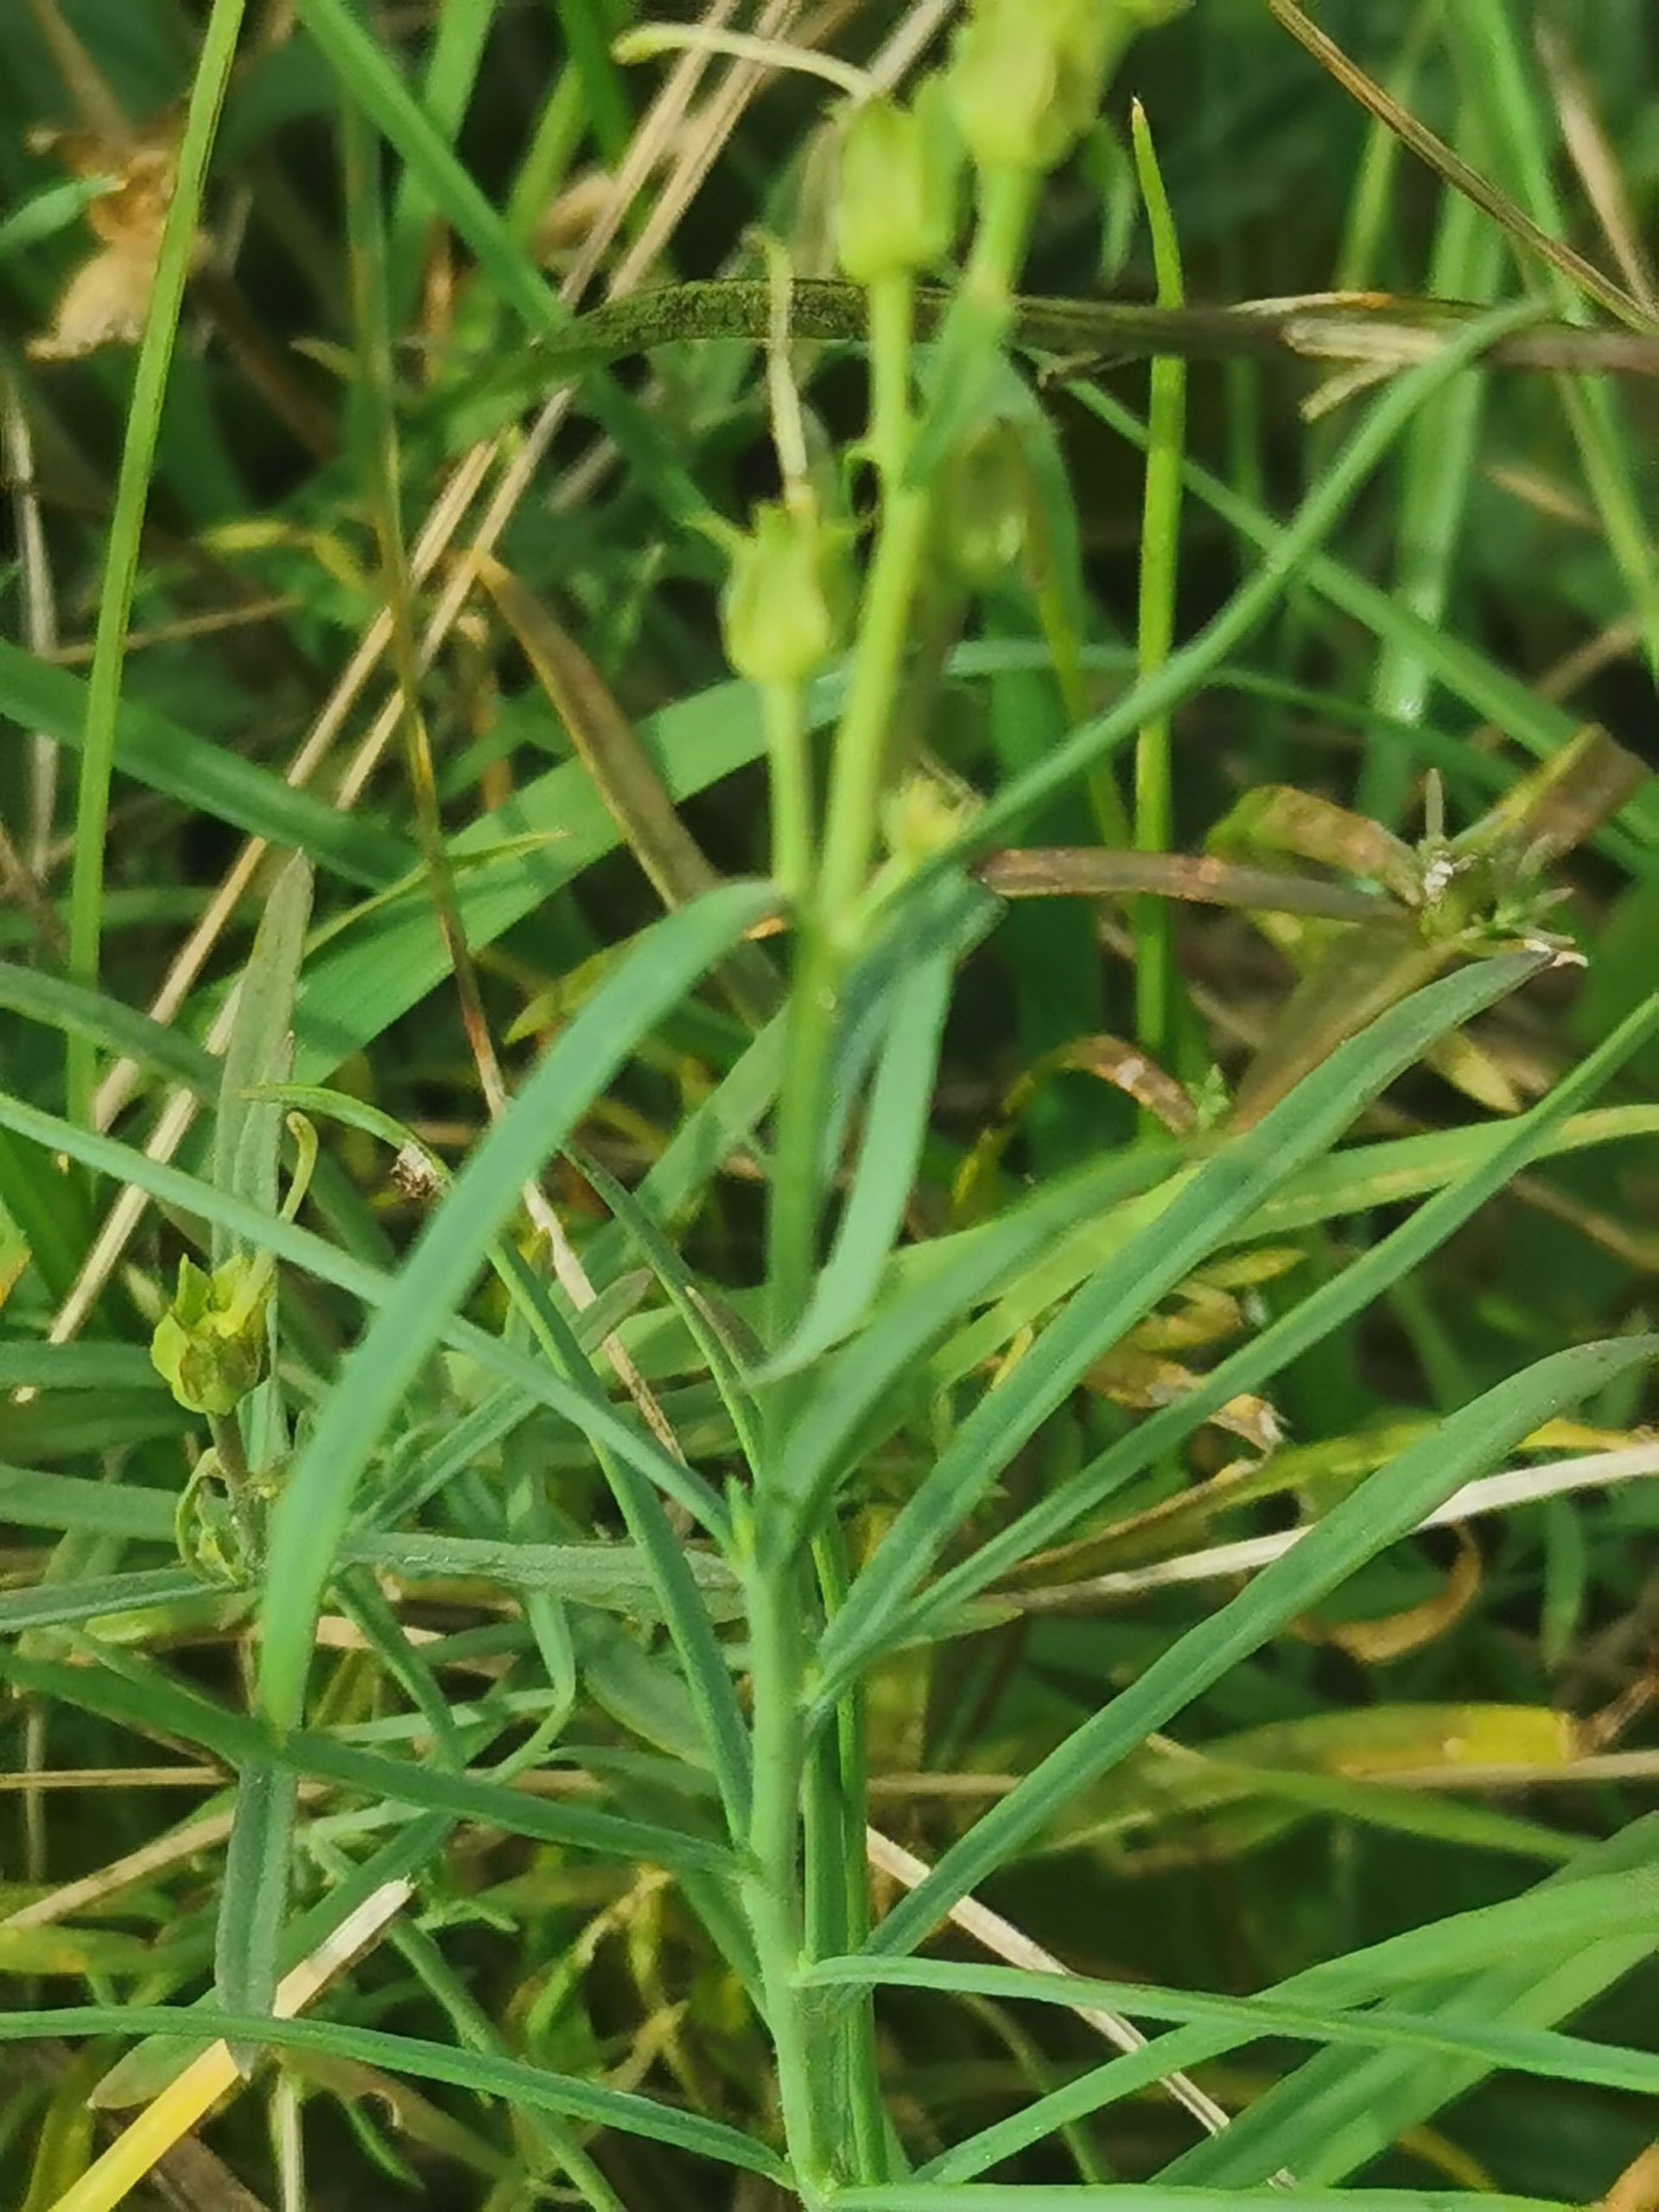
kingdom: Plantae
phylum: Tracheophyta
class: Magnoliopsida
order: Lamiales
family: Plantaginaceae
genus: Linaria
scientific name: Linaria vulgaris
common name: Almindelig torskemund
